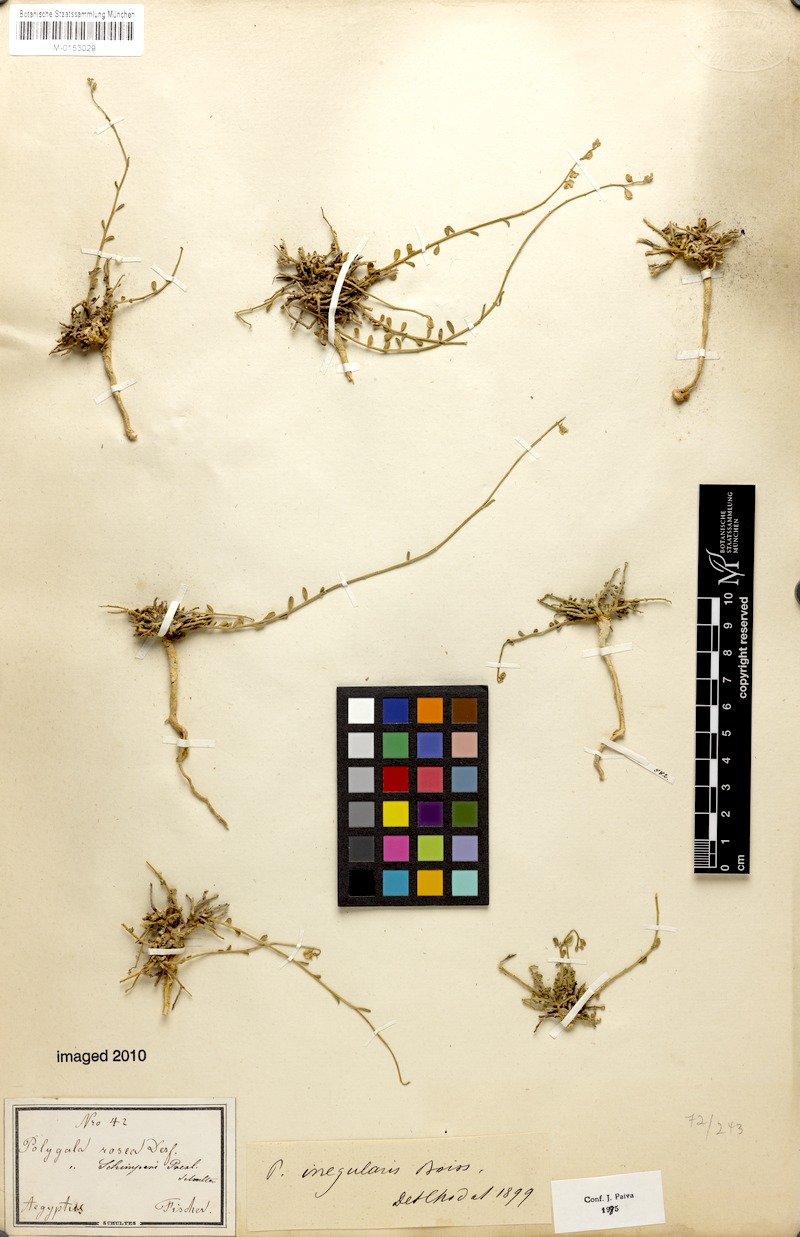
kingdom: Plantae
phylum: Tracheophyta
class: Magnoliopsida
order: Fabales
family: Polygalaceae
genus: Polygala
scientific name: Polygala irregularis
